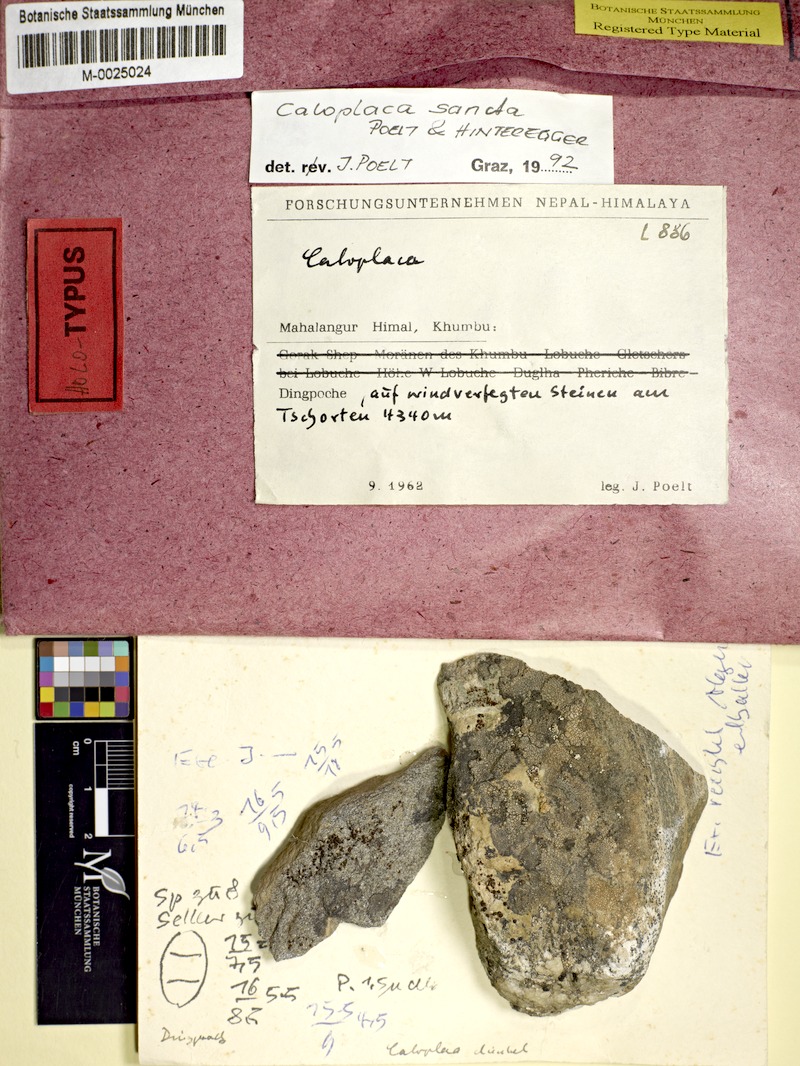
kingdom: Fungi
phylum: Ascomycota
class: Lecanoromycetes
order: Teloschistales
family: Teloschistaceae
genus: Caloplaca
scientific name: Caloplaca
